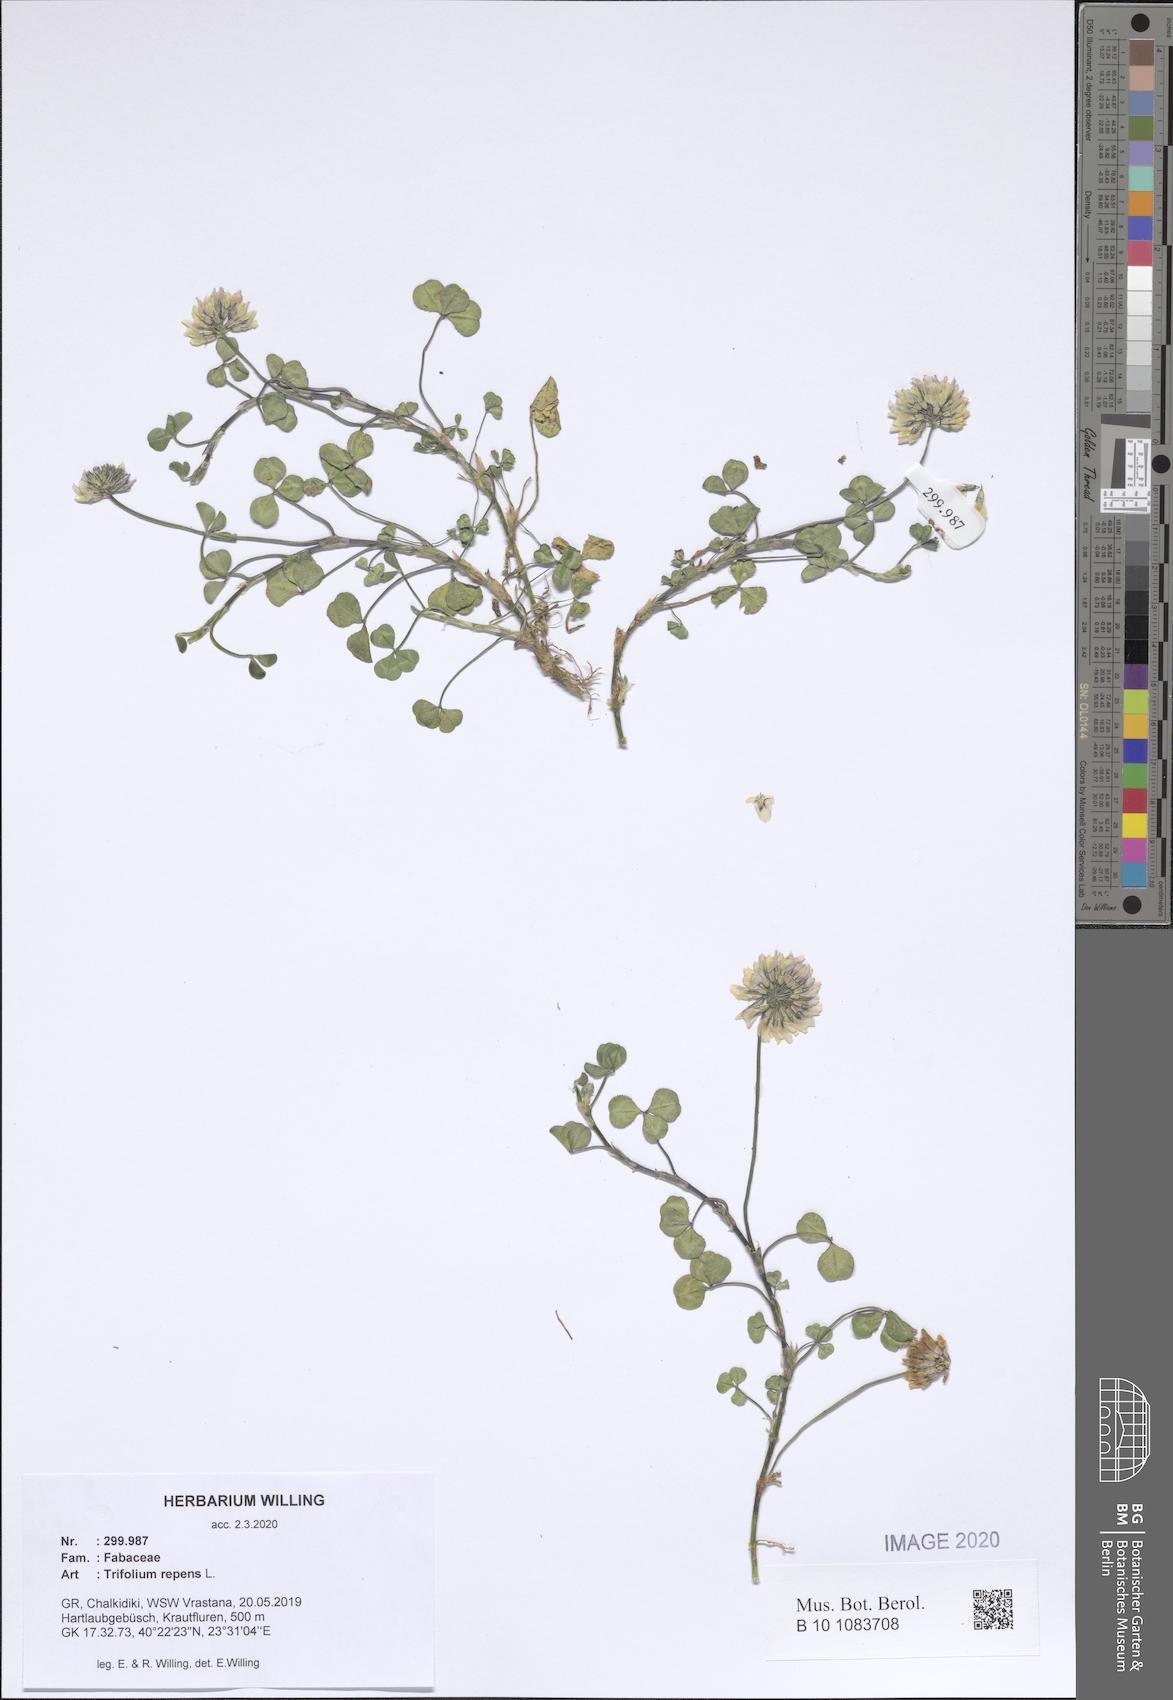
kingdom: Plantae
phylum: Tracheophyta
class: Magnoliopsida
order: Fabales
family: Fabaceae
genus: Trifolium
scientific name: Trifolium repens
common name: White clover
